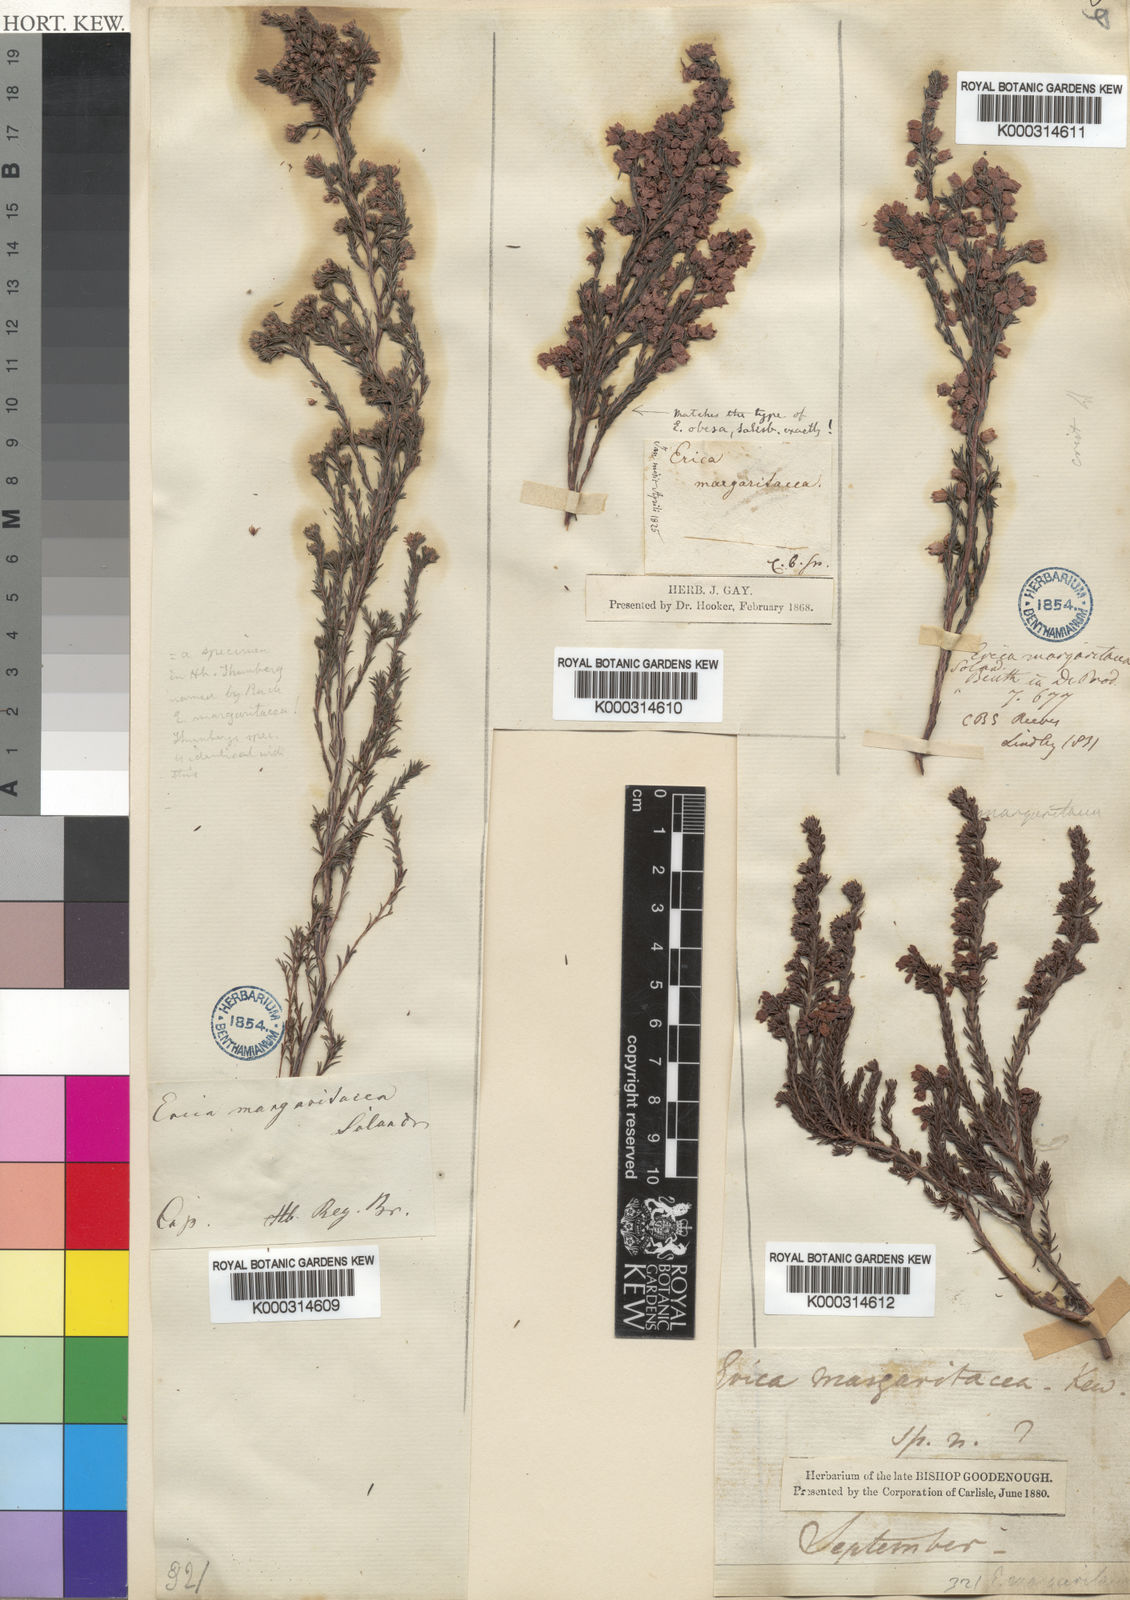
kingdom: Plantae
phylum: Tracheophyta
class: Magnoliopsida
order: Ericales
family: Ericaceae
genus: Erica
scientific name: Erica
